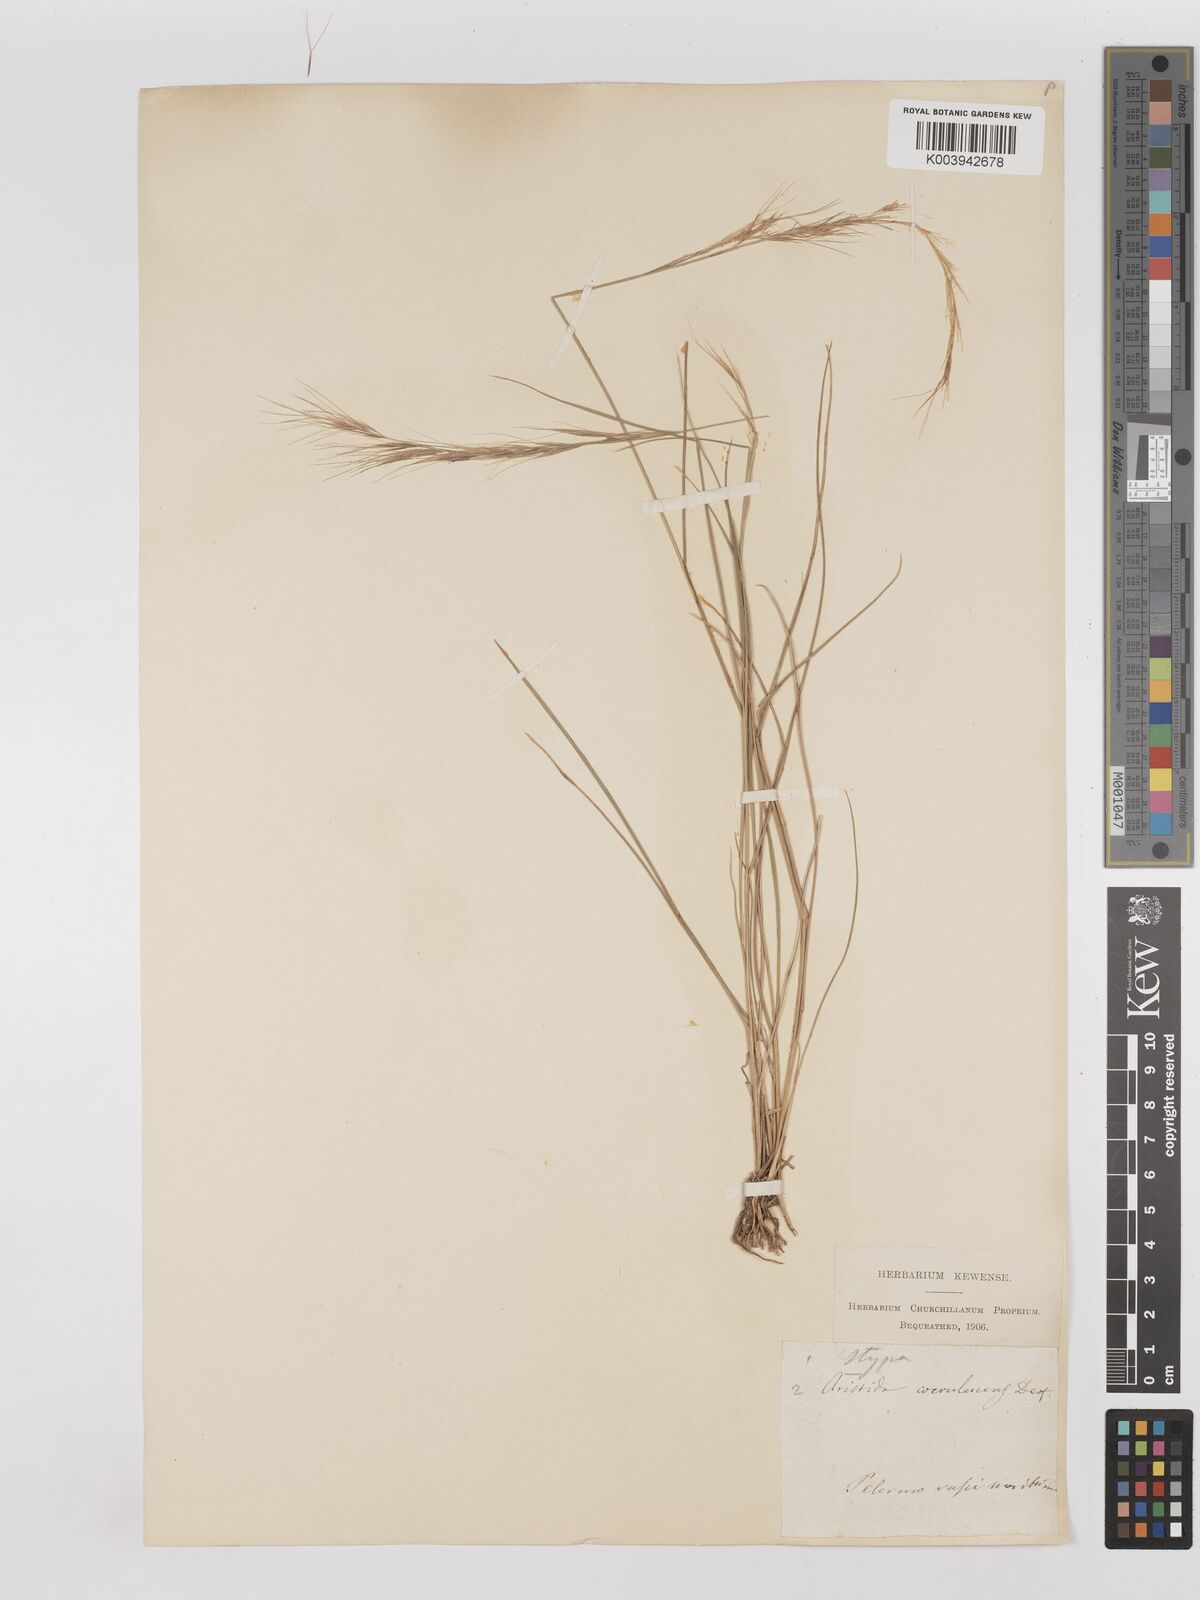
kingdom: Plantae
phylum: Tracheophyta
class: Liliopsida
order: Poales
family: Poaceae
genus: Aristida
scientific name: Aristida adscensionis
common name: Sixweeks threeawn
